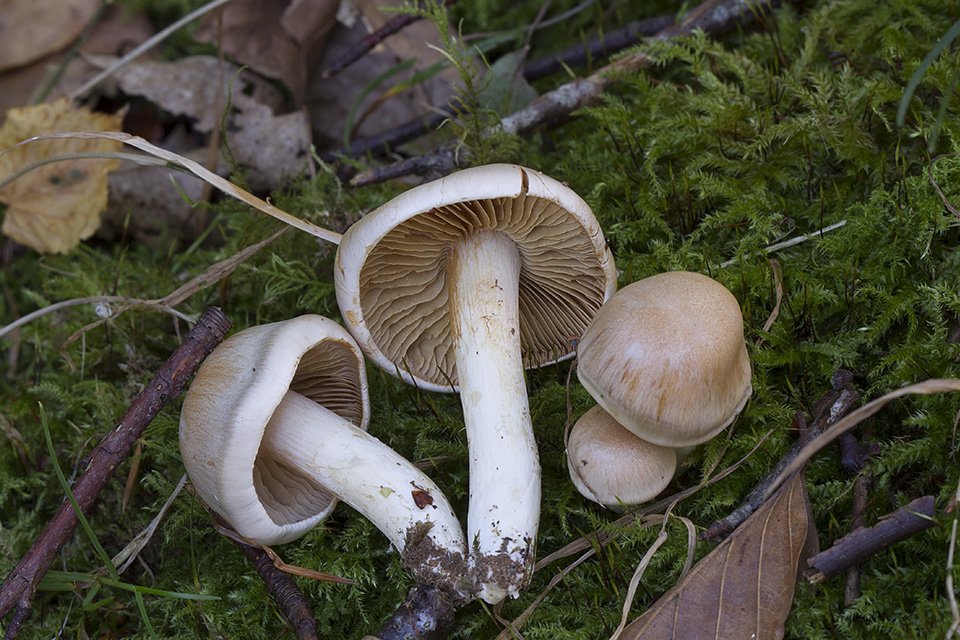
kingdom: Fungi
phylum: Basidiomycota
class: Agaricomycetes
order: Agaricales
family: Cortinariaceae
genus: Thaxterogaster
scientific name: Thaxterogaster leucoluteolus
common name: isabella slørhat
